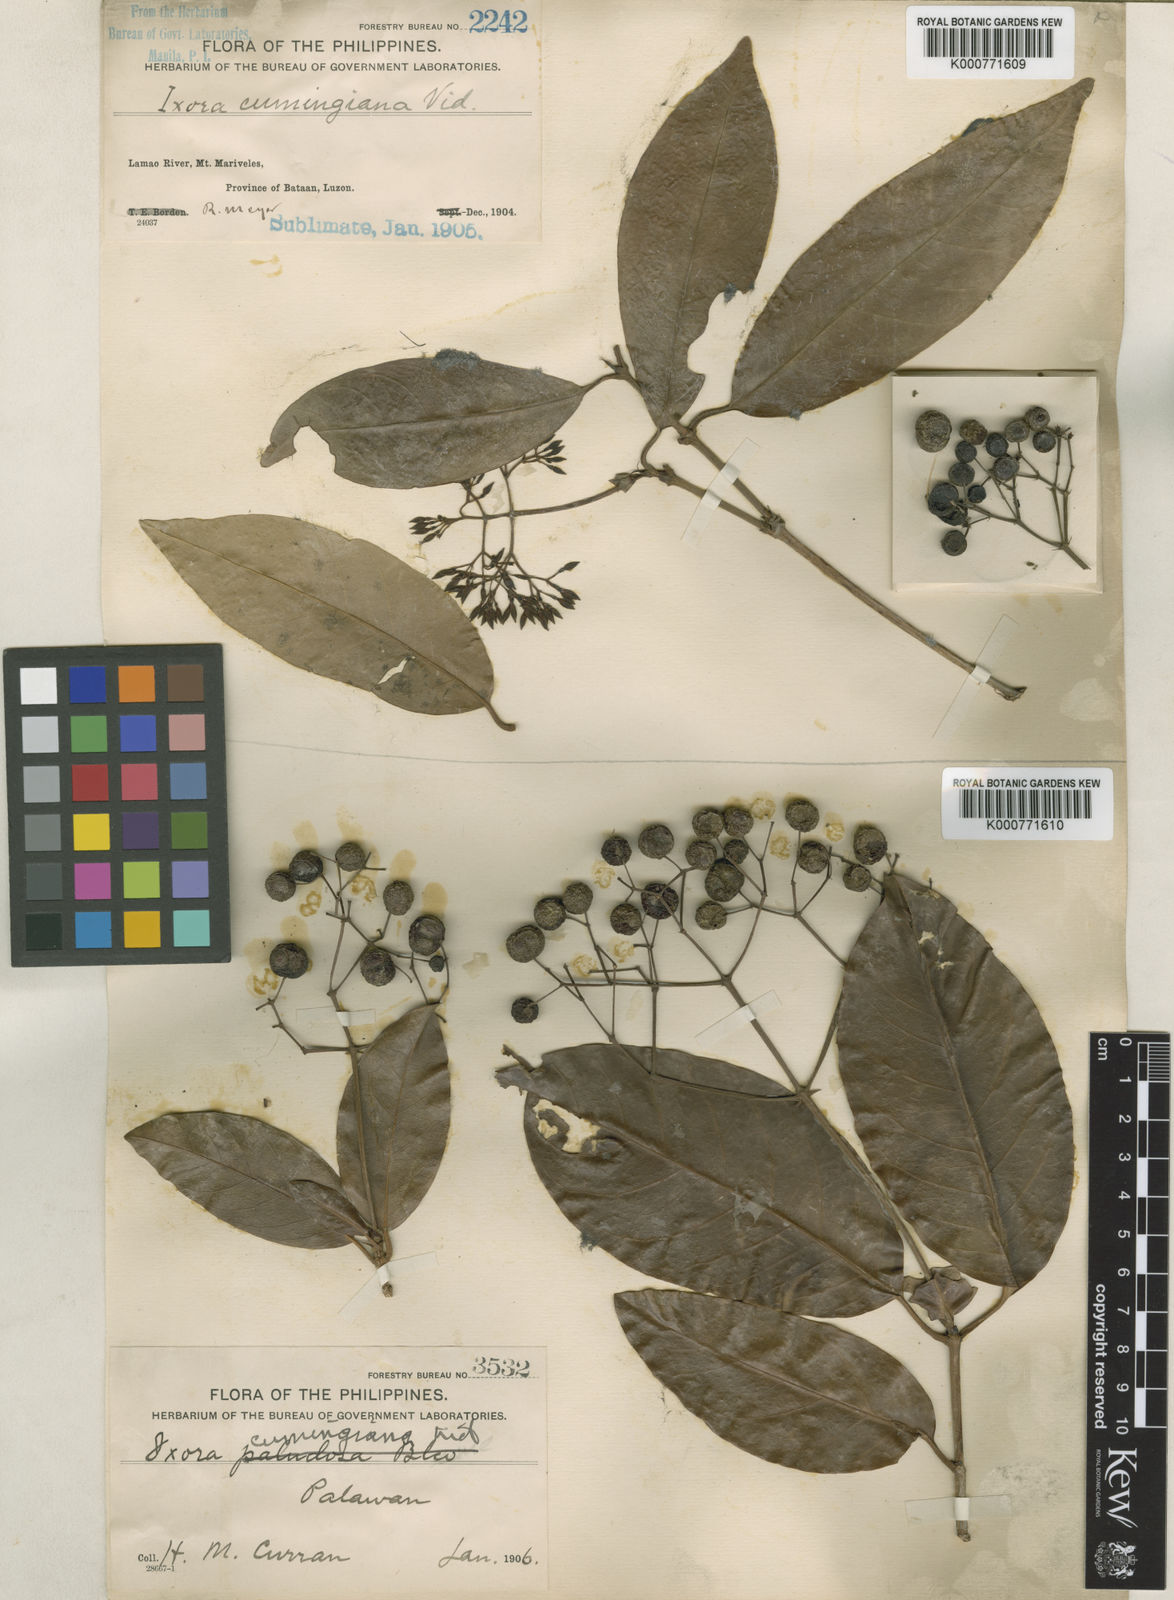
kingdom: Plantae
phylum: Tracheophyta
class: Magnoliopsida
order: Gentianales
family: Rubiaceae
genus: Ixora
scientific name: Ixora cumingiana
